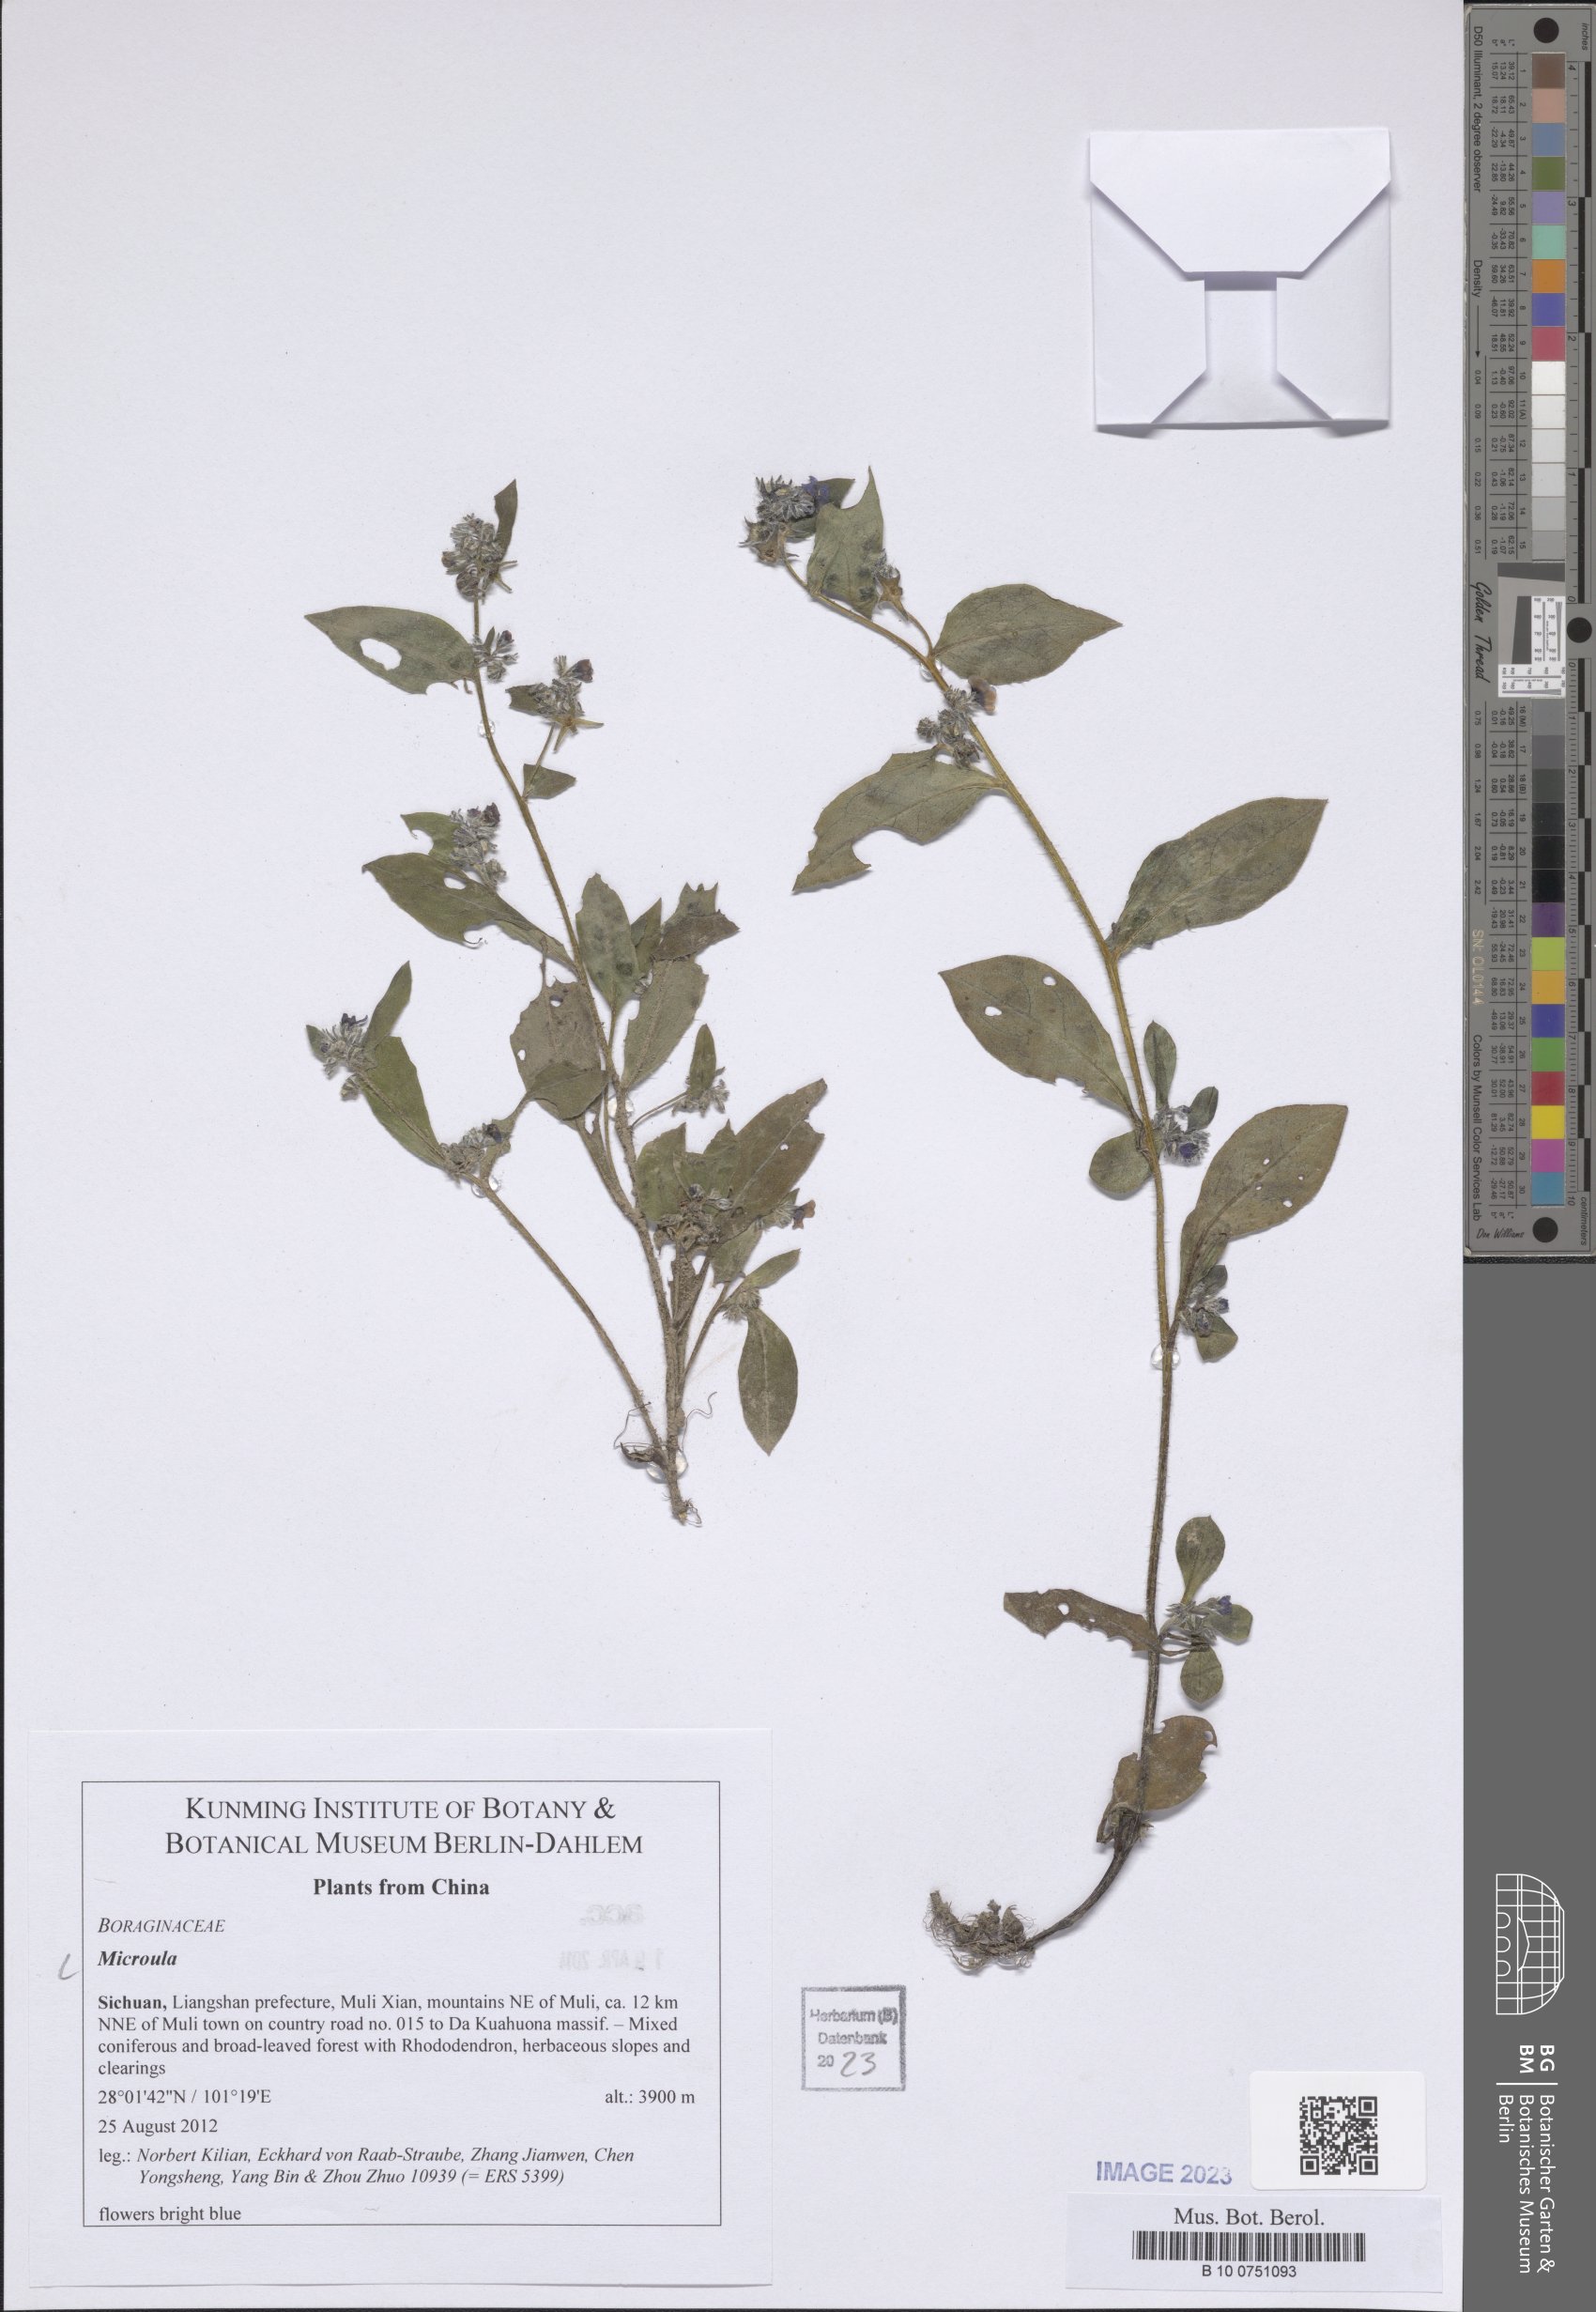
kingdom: Plantae
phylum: Tracheophyta
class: Magnoliopsida
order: Boraginales
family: Boraginaceae
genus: Microula
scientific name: Microula
